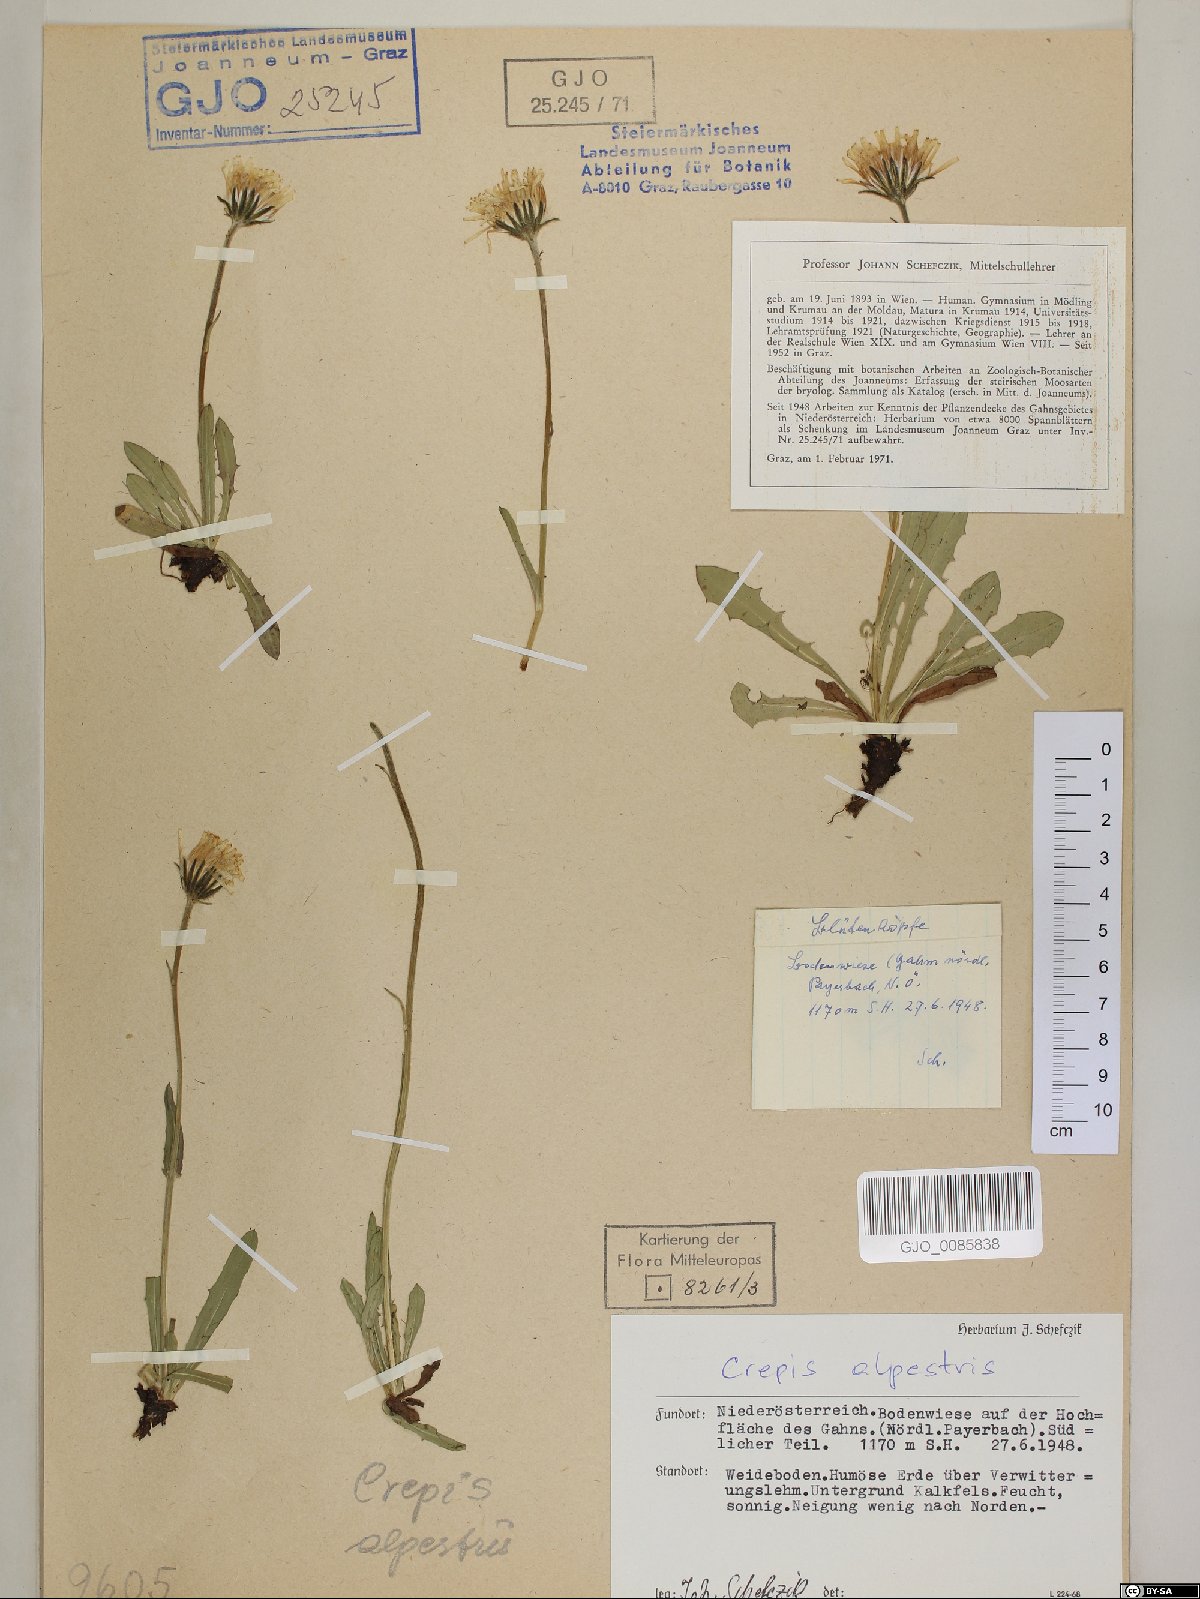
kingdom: Plantae
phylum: Tracheophyta
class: Magnoliopsida
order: Asterales
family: Asteraceae
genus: Crepis
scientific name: Crepis alpestris
